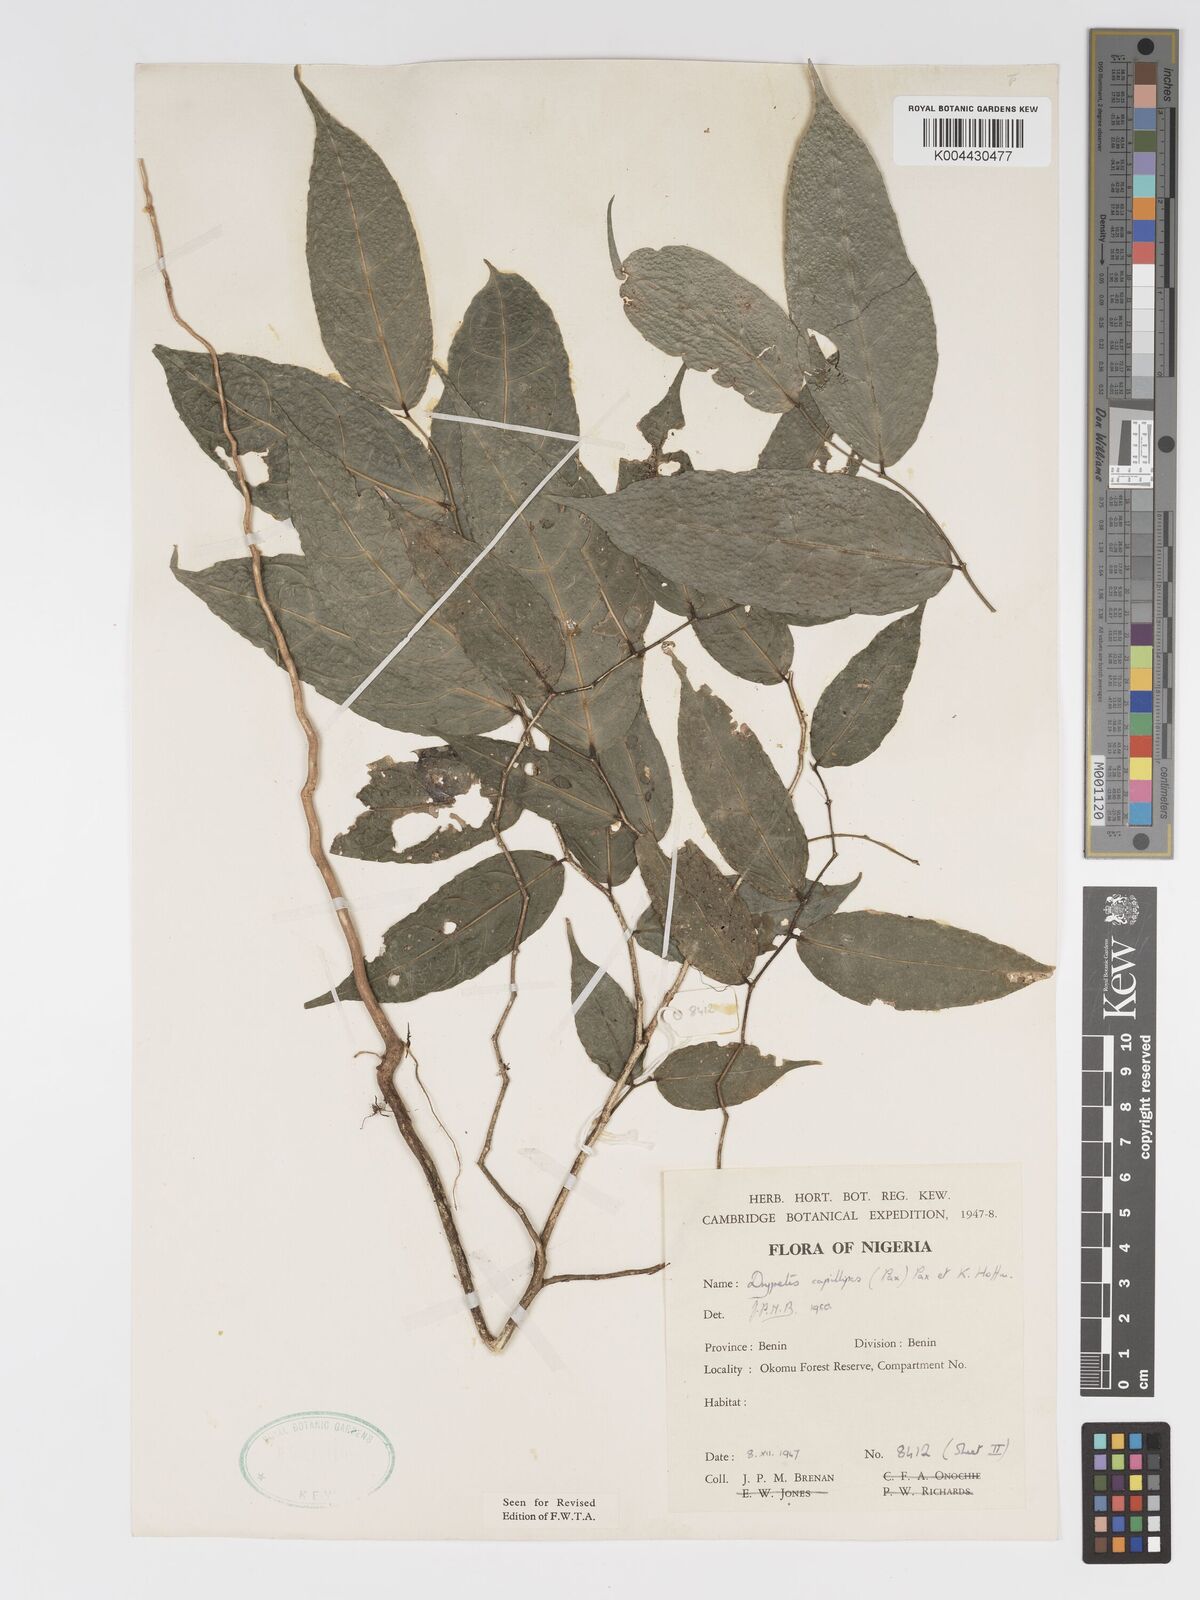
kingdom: Plantae
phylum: Tracheophyta
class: Magnoliopsida
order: Malpighiales
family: Putranjivaceae
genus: Drypetes
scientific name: Drypetes capillipes
